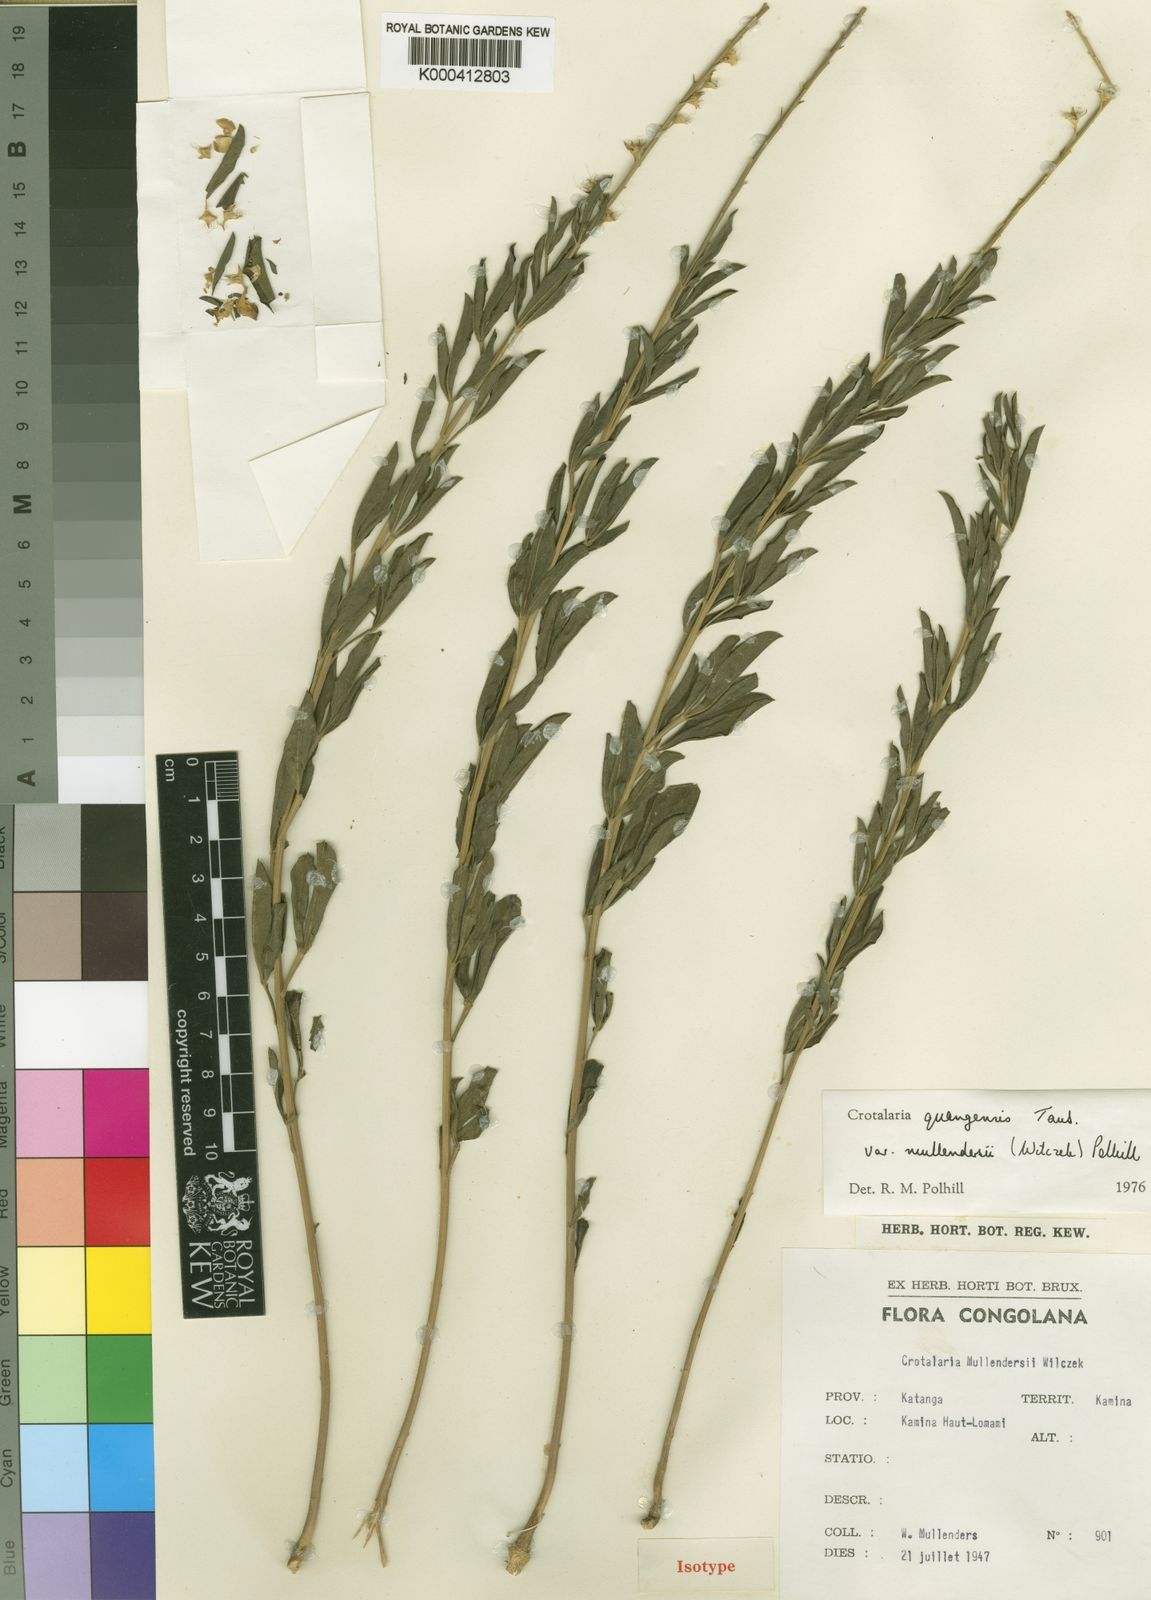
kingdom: Plantae
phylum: Tracheophyta
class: Magnoliopsida
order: Fabales
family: Fabaceae
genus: Crotalaria
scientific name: Crotalaria quangensis
